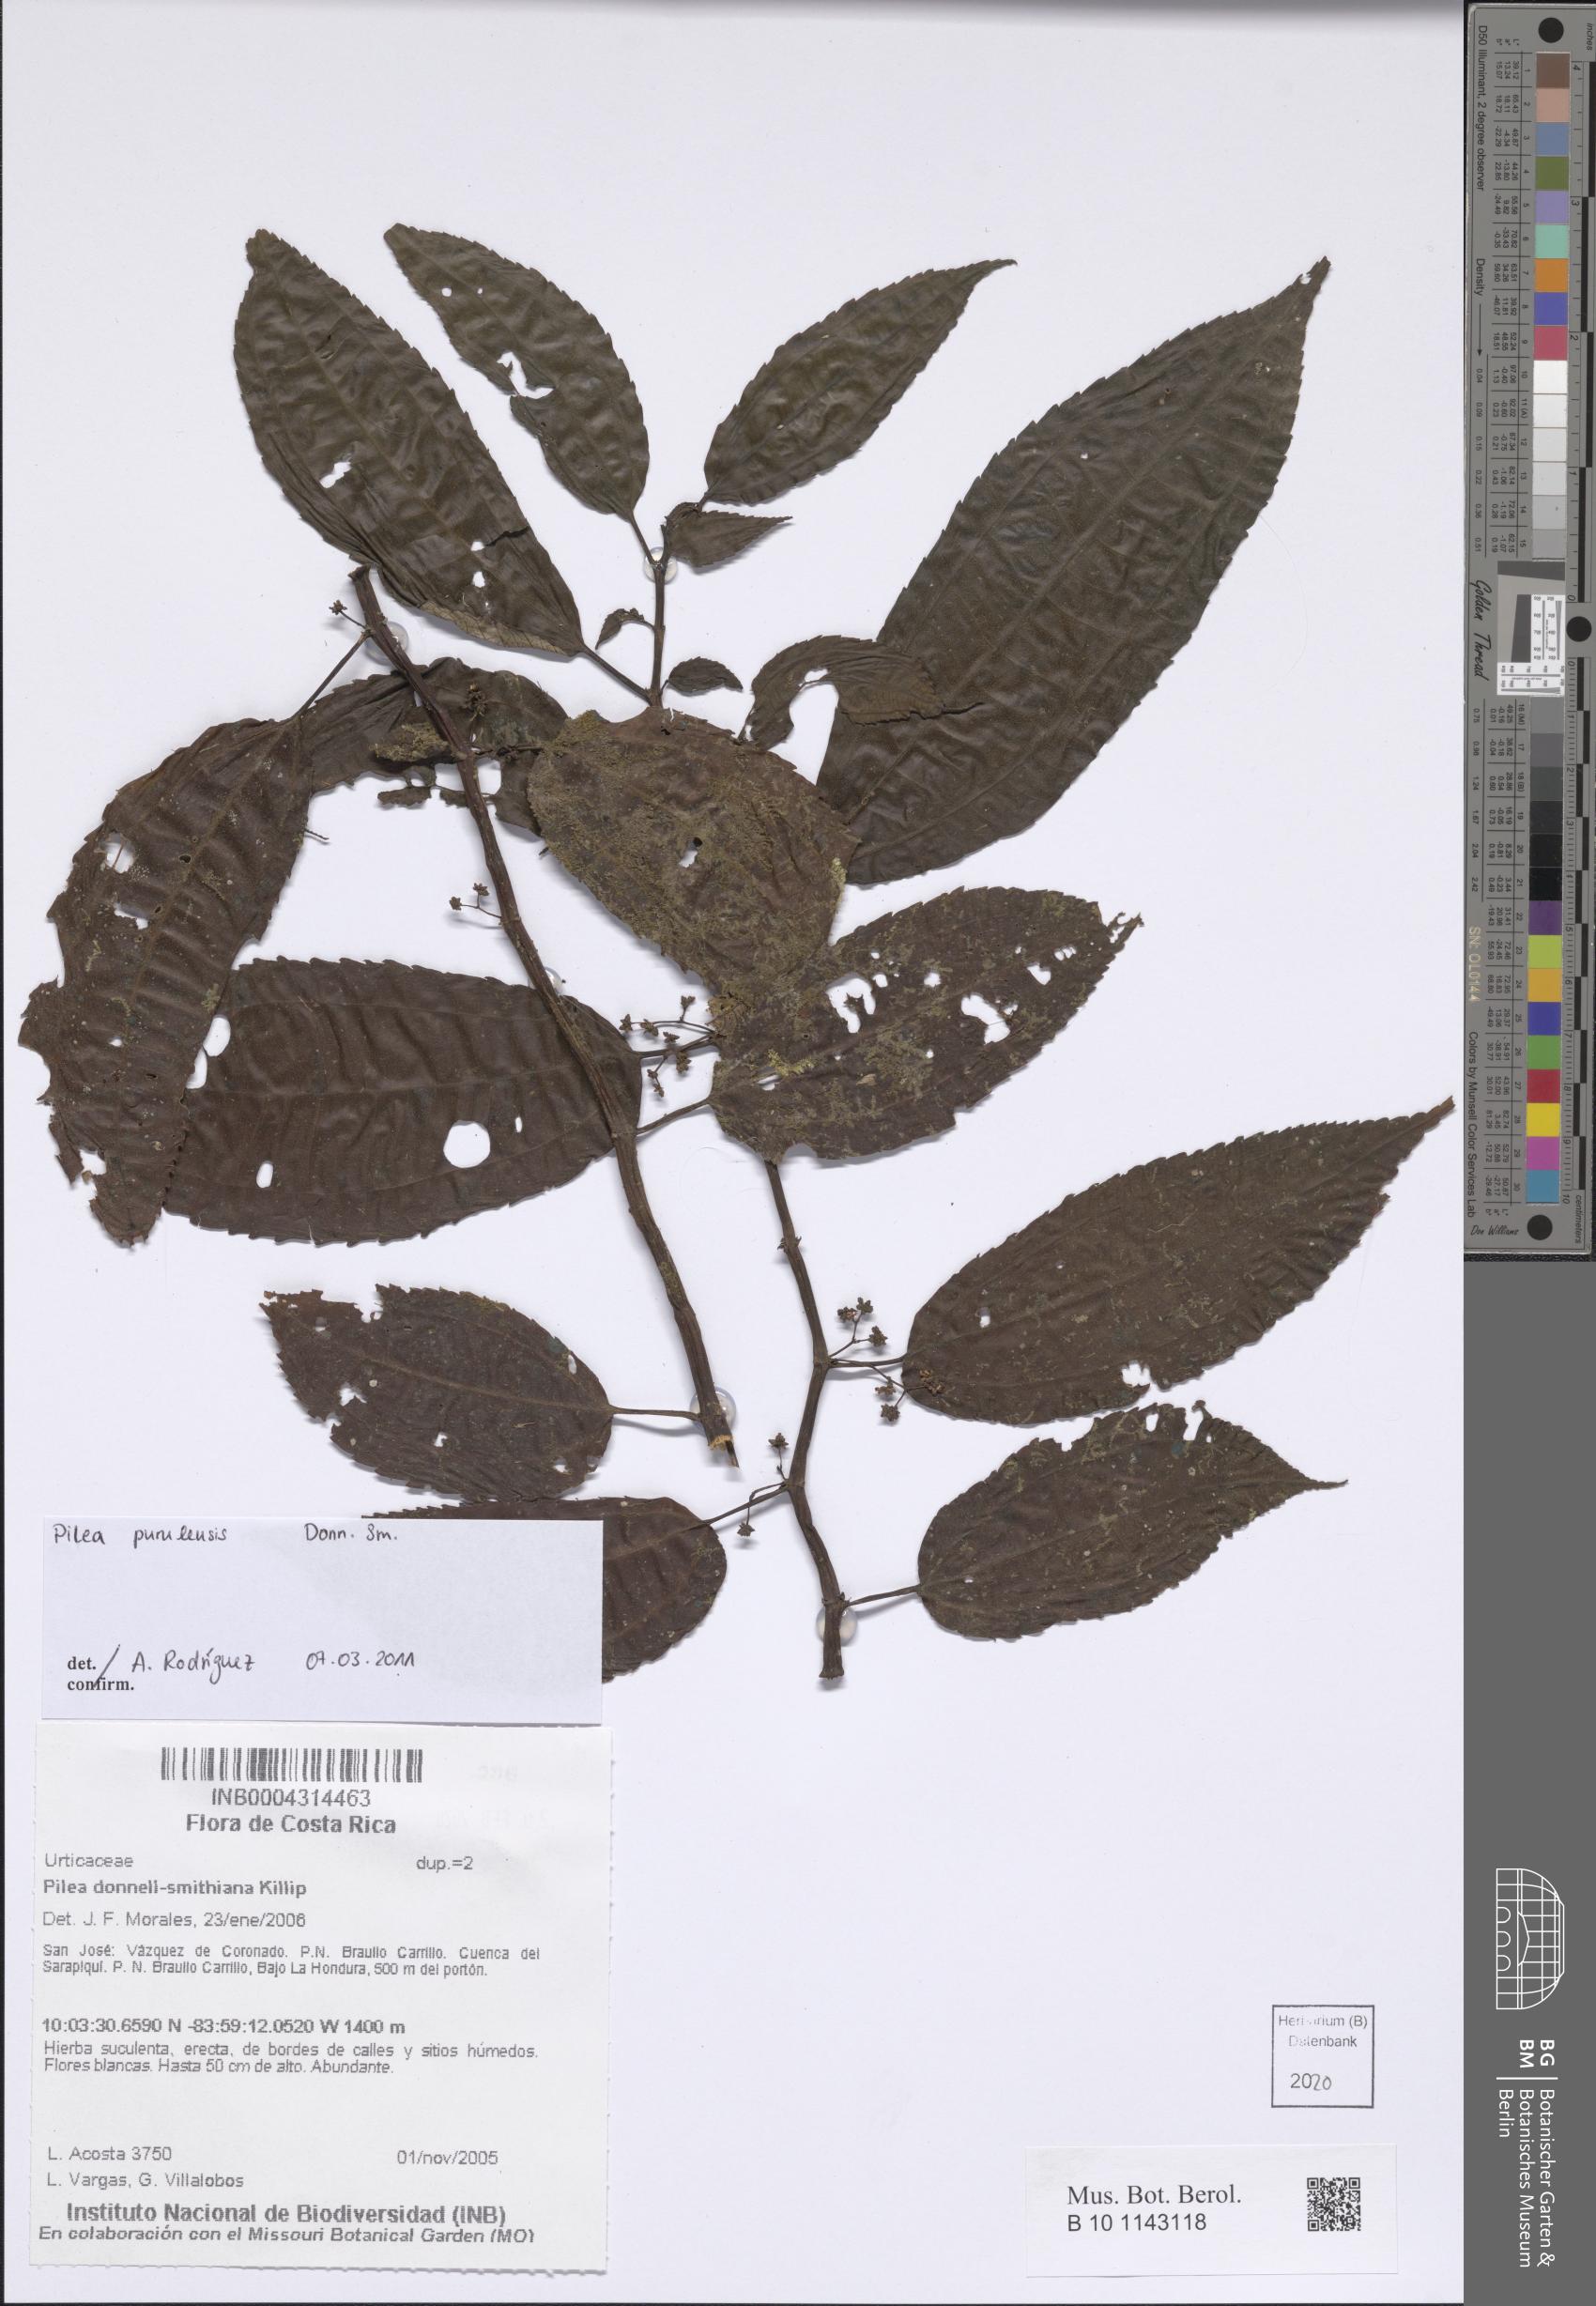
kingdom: Plantae
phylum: Tracheophyta
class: Magnoliopsida
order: Rosales
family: Urticaceae
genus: Pilea
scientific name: Pilea purulensis
